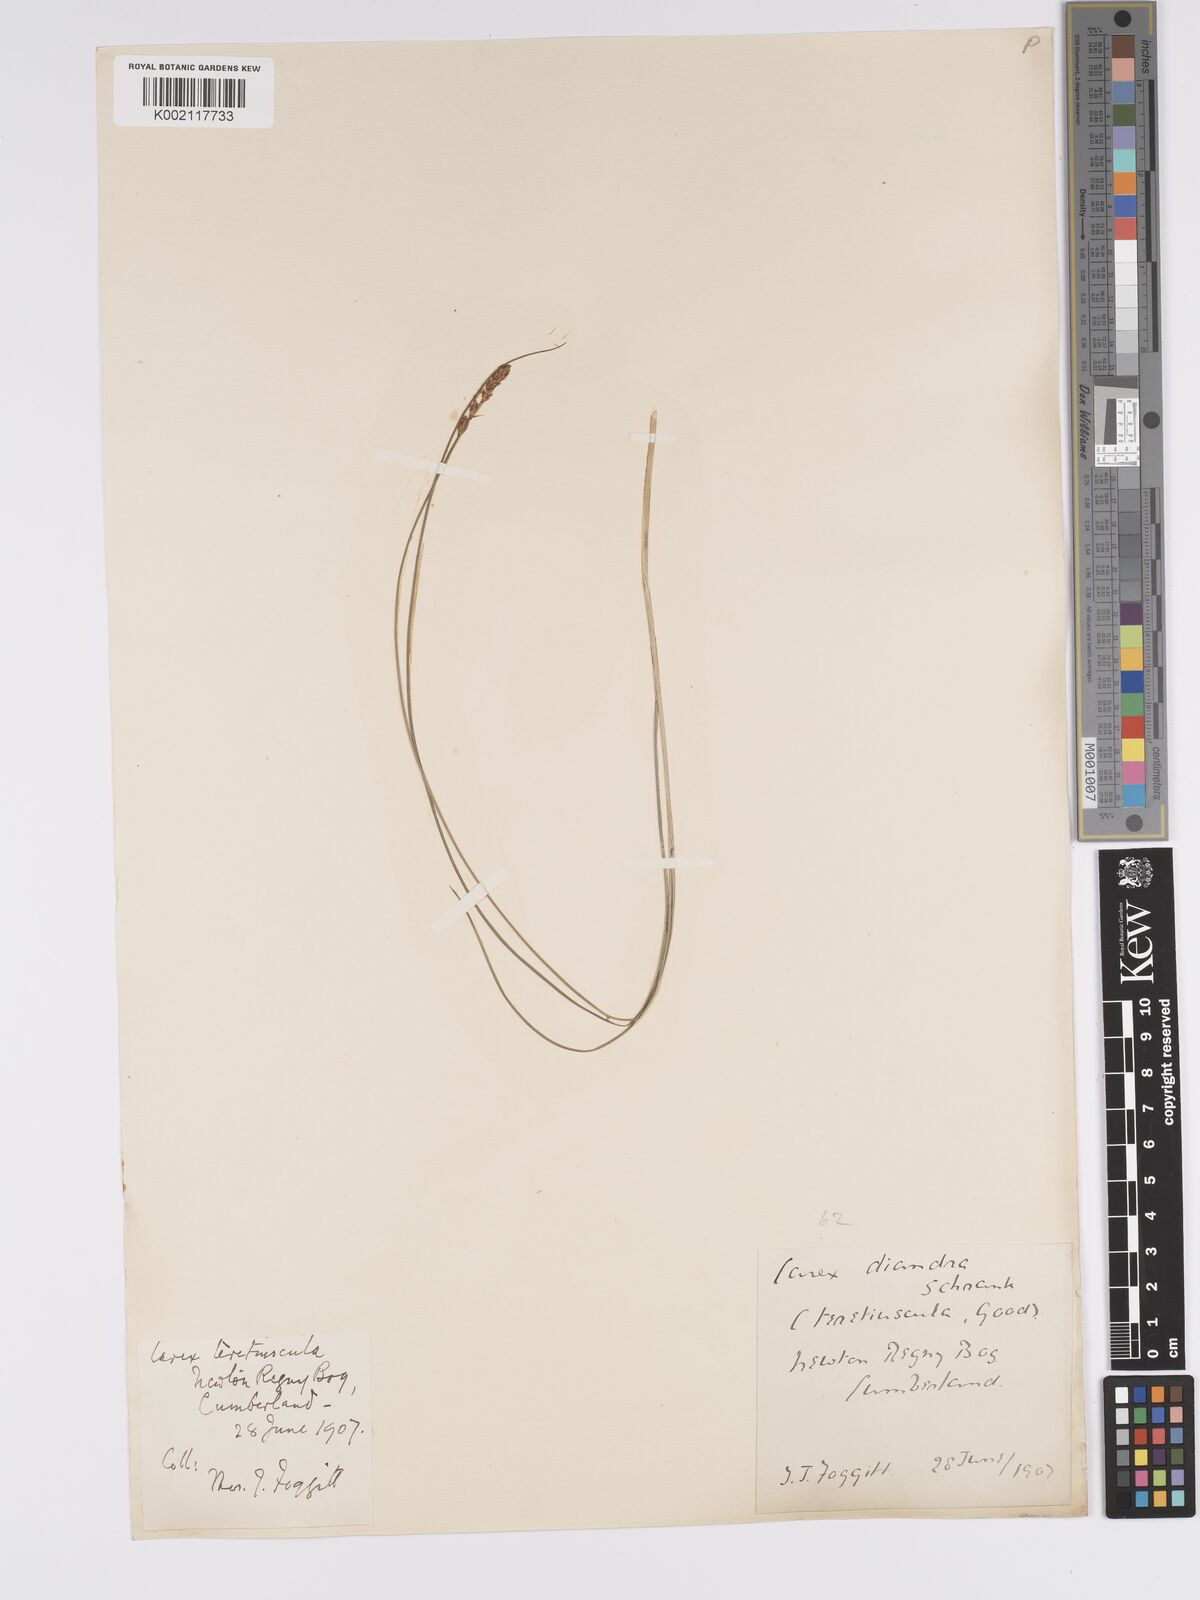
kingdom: Plantae
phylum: Tracheophyta
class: Liliopsida
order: Poales
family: Cyperaceae
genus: Carex
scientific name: Carex diandra
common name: Lesser tussock-sedge
